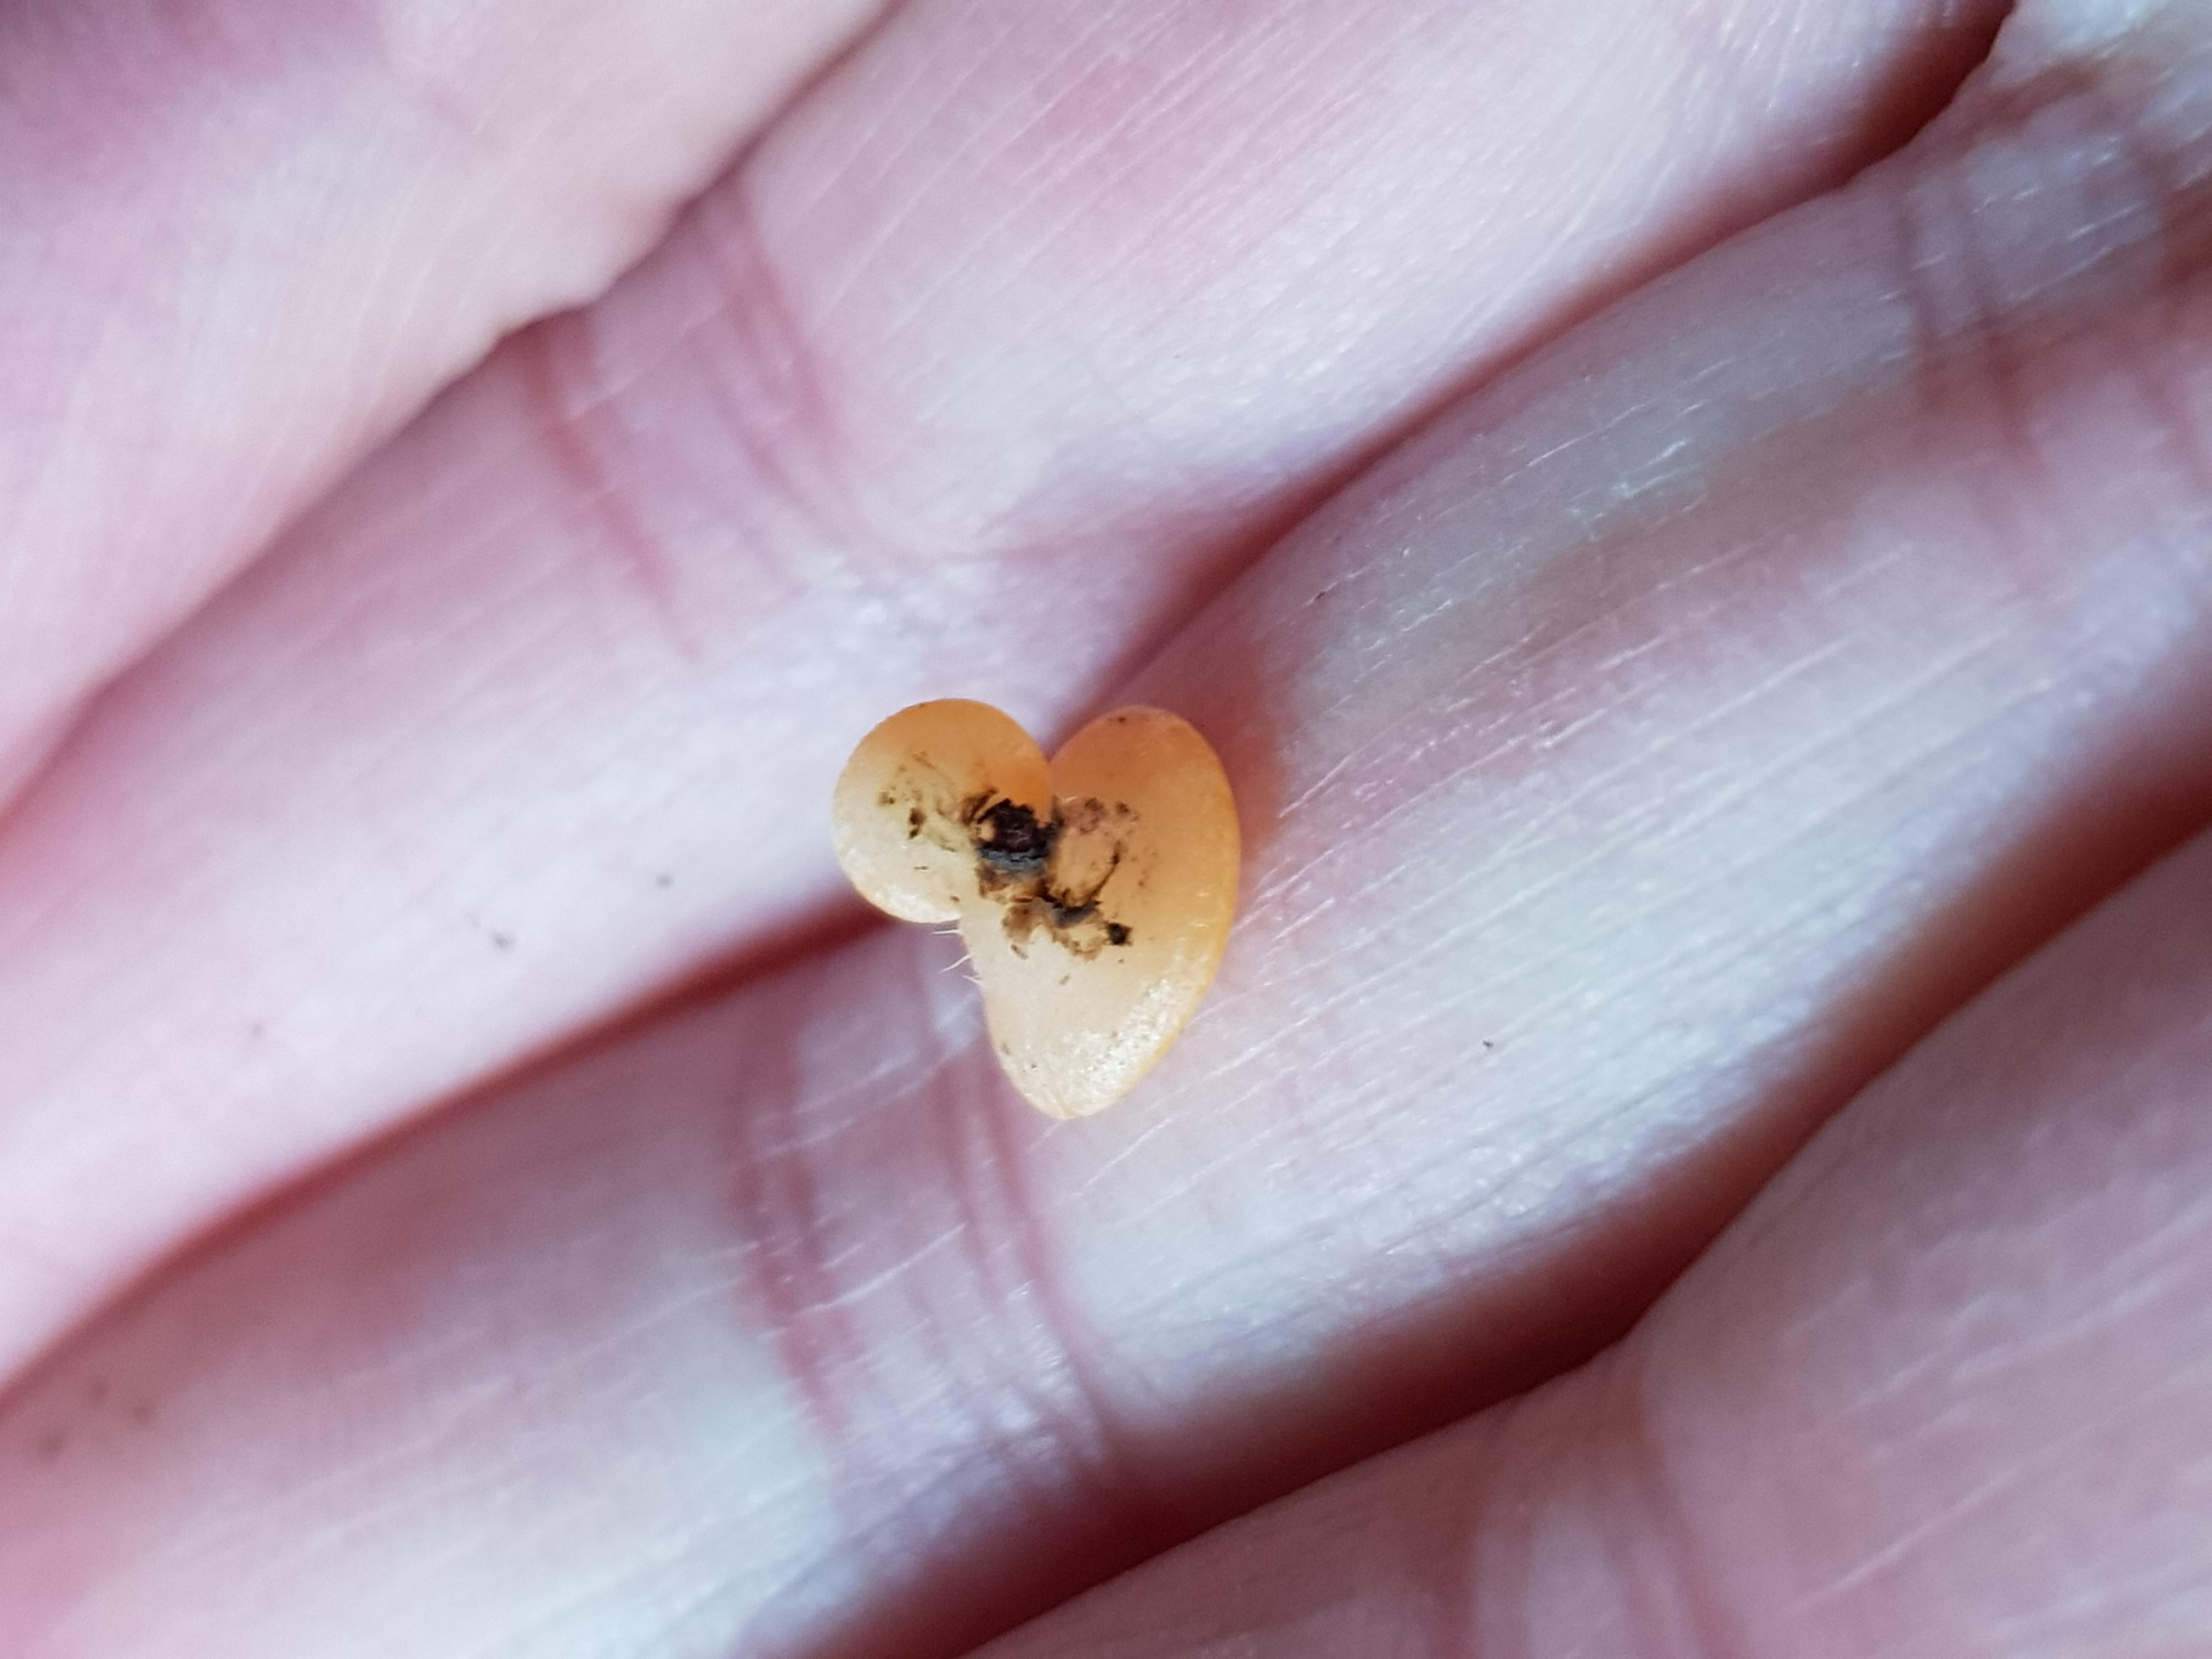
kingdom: Fungi
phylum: Ascomycota
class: Pezizomycetes
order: Pezizales
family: Sarcoscyphaceae
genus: Pithya
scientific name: Pithya vulgaris
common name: stor dukatbæger
